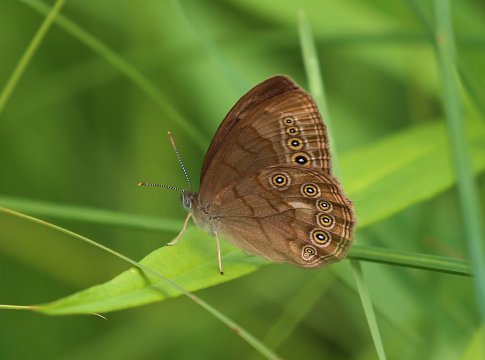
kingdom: Animalia
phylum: Arthropoda
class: Insecta
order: Lepidoptera
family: Nymphalidae
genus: Lethe
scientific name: Lethe eurydice
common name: Eyed Brown
